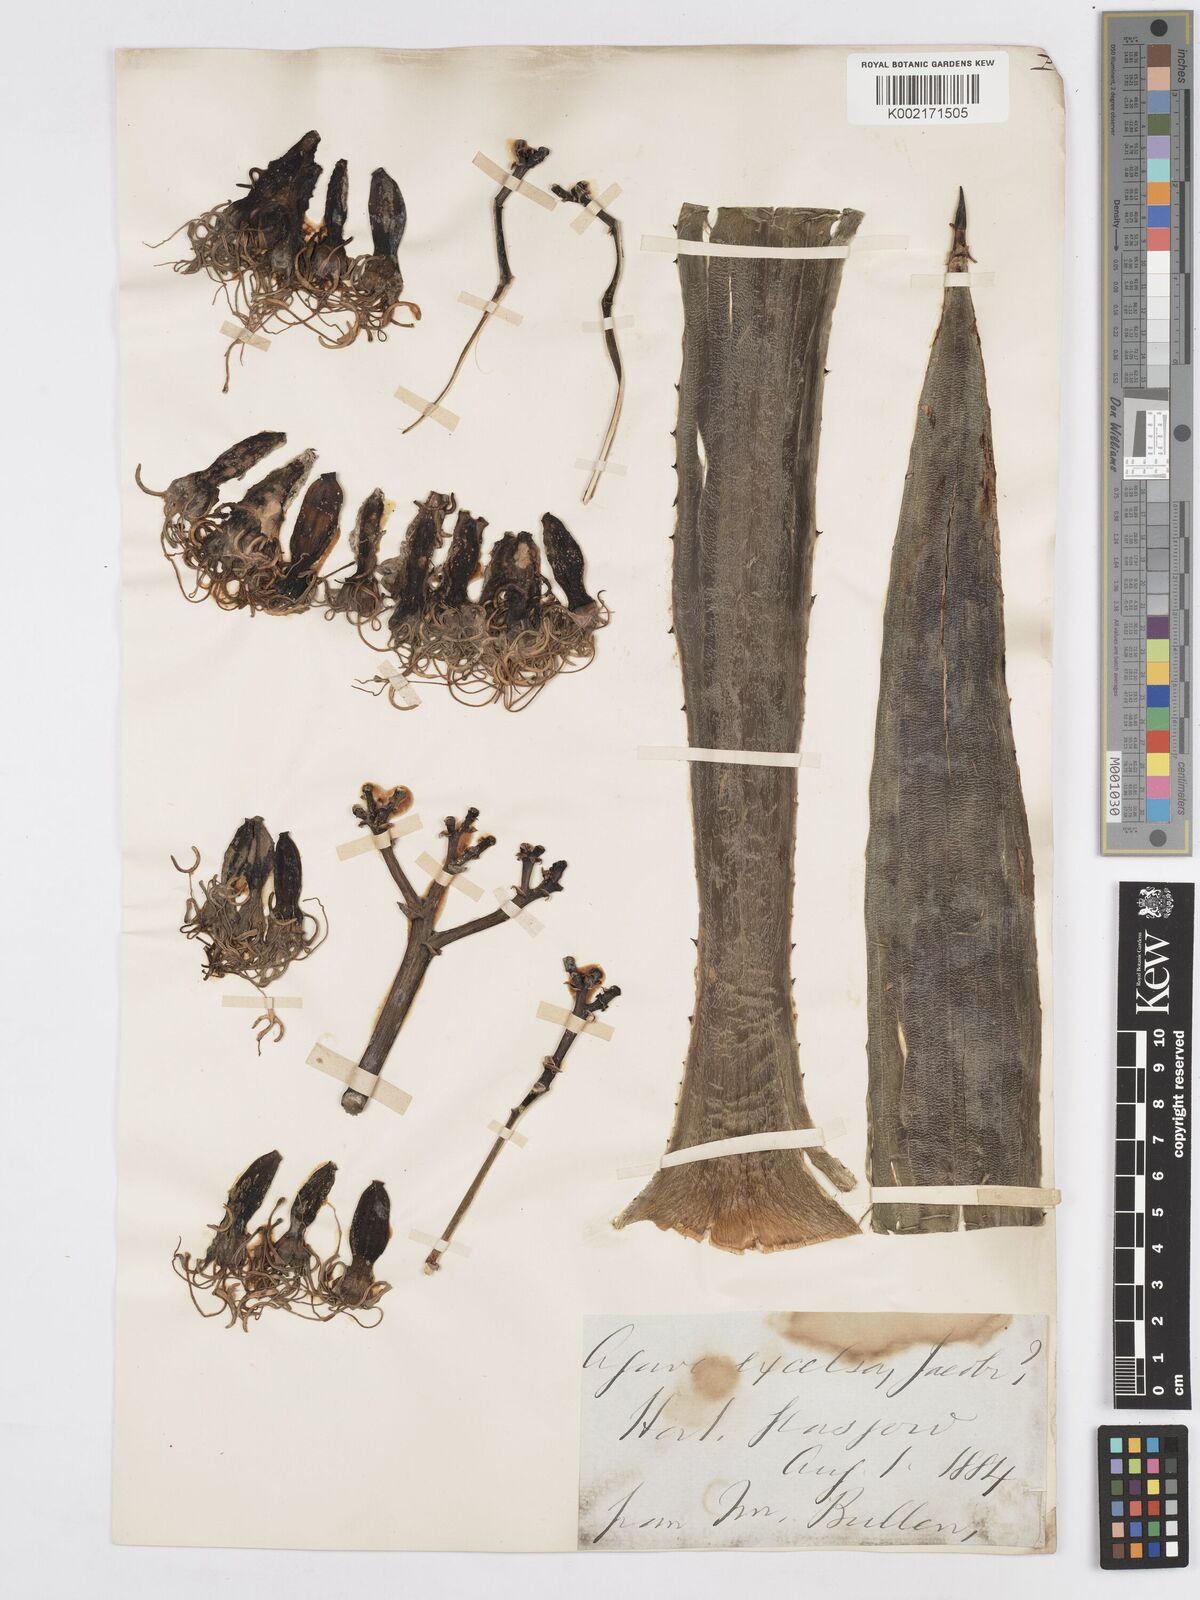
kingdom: Plantae
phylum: Tracheophyta
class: Liliopsida
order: Asparagales
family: Asparagaceae
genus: Agave
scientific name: Agave angustifolia
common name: Mescal agave
